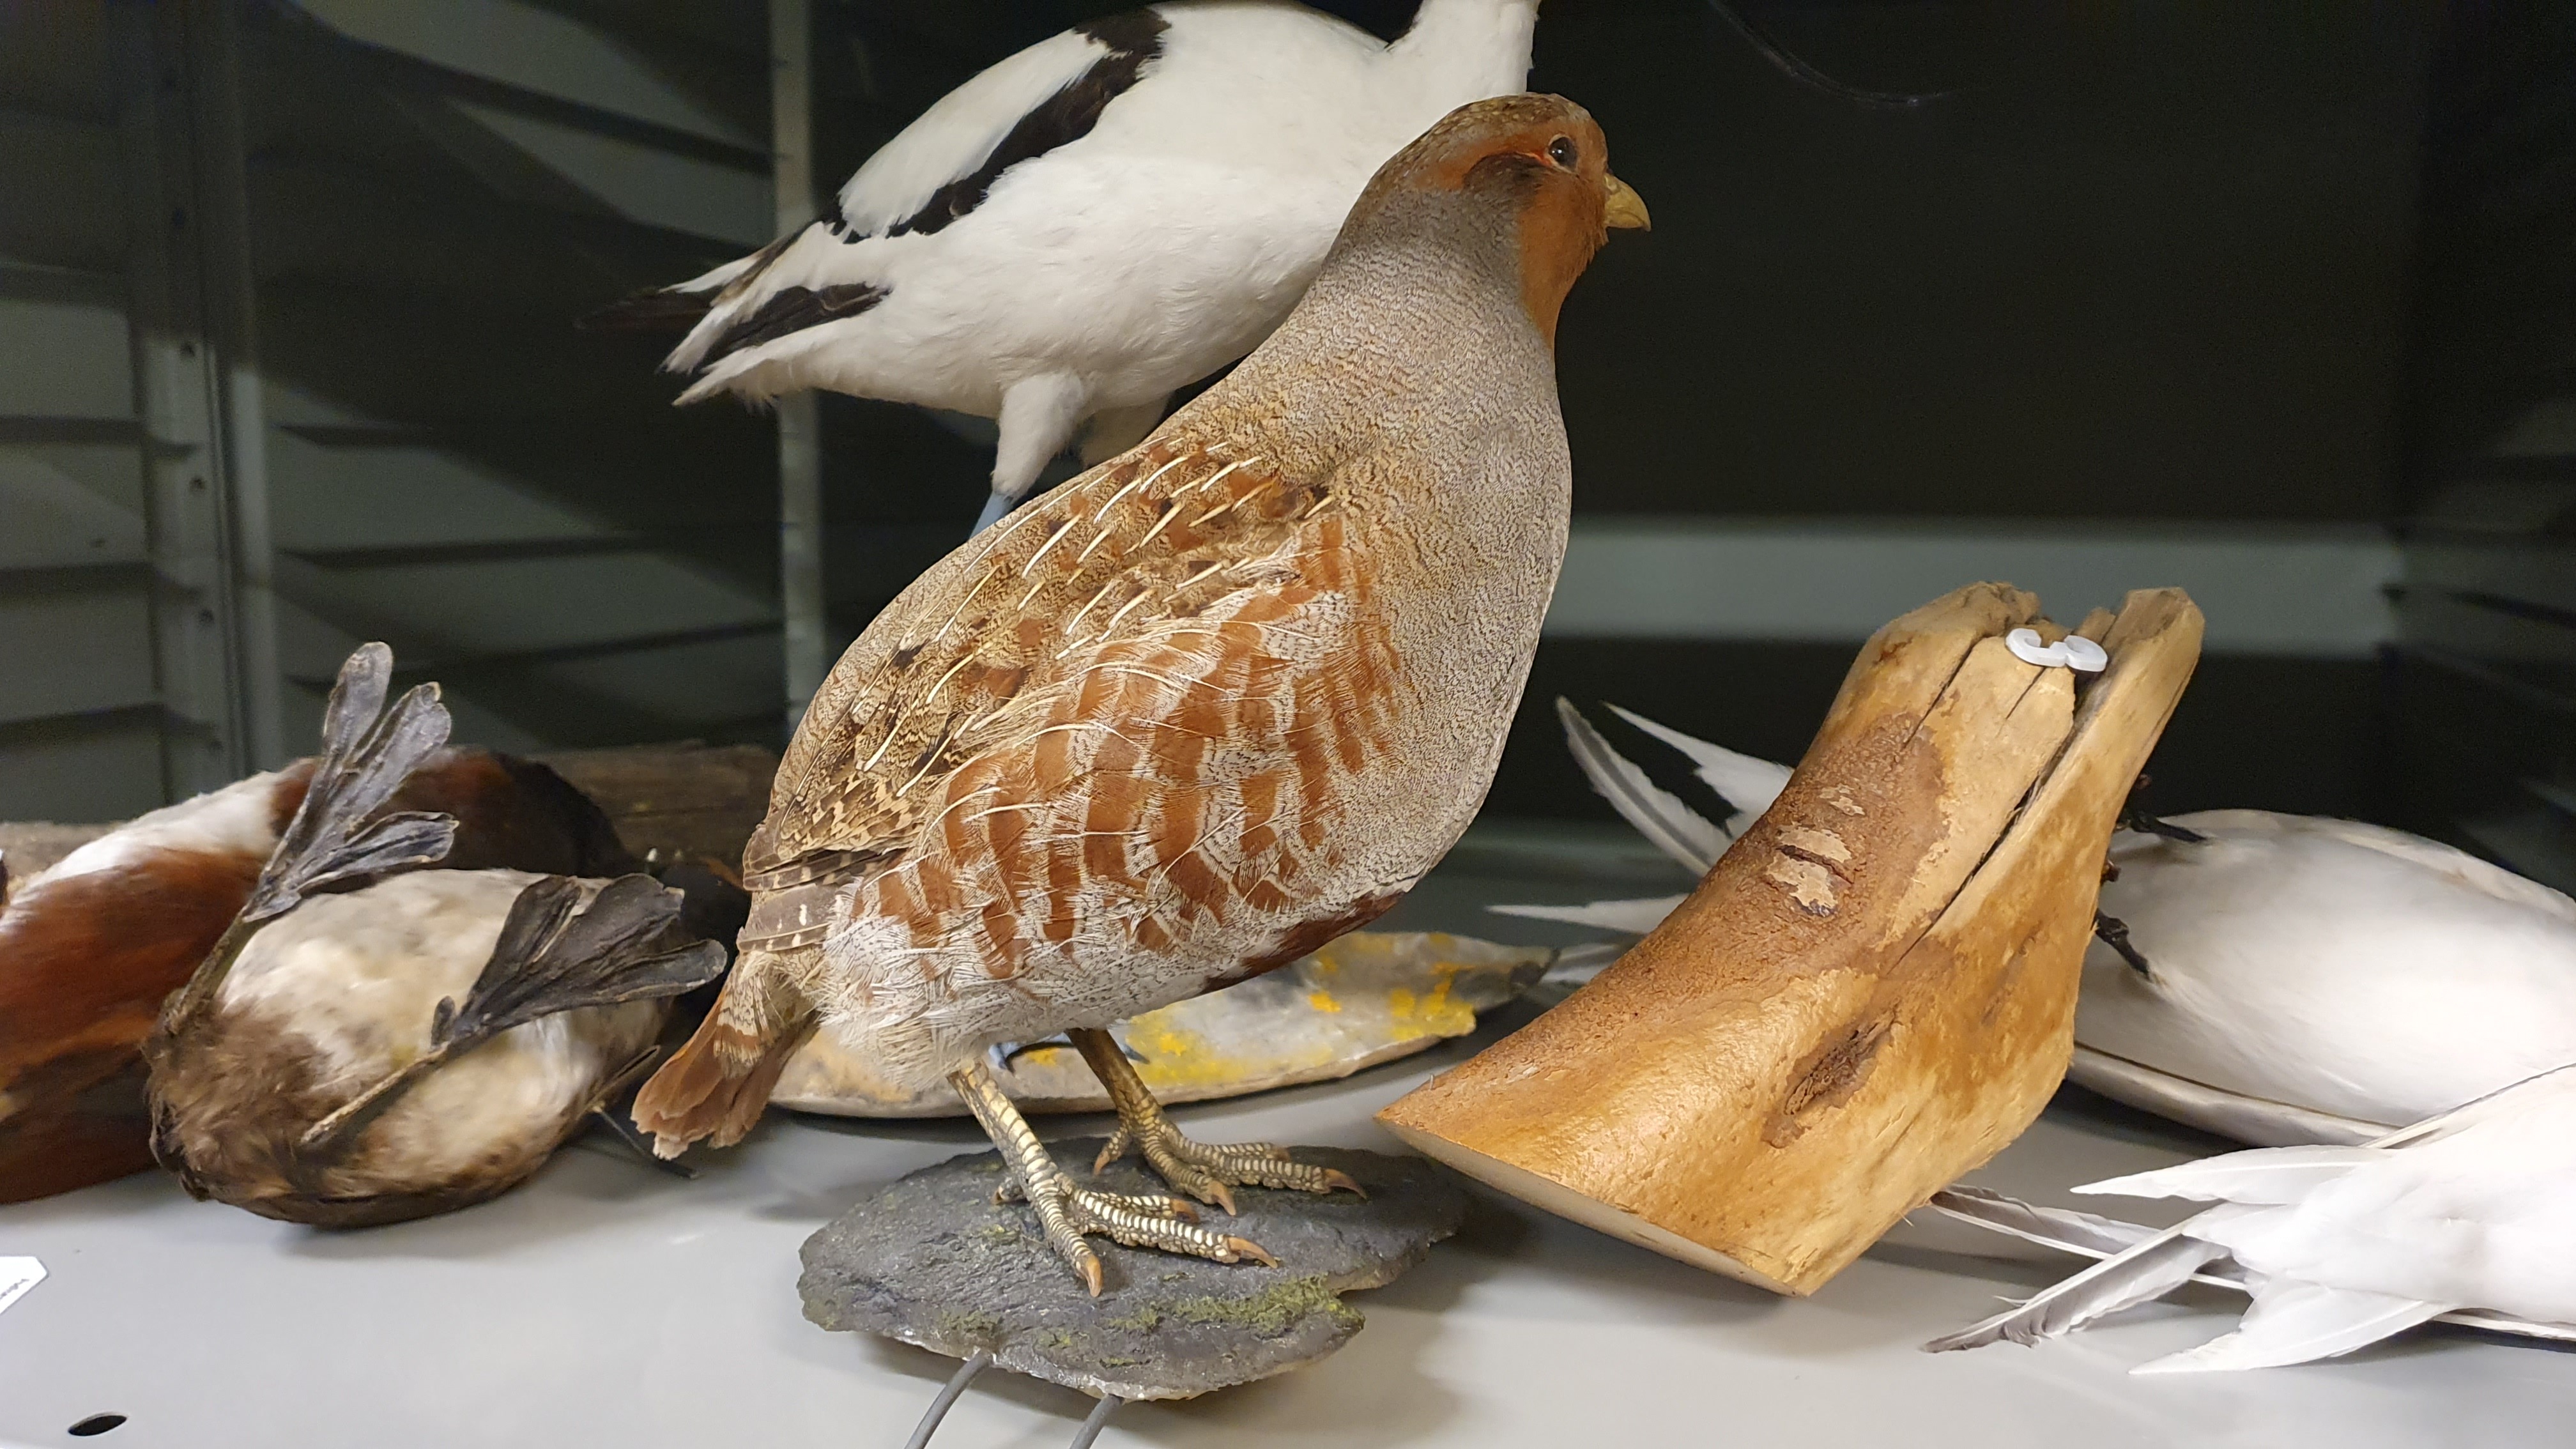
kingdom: Animalia
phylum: Chordata
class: Aves
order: Galliformes
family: Phasianidae
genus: Perdix
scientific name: Perdix perdix
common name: Grey partridge
